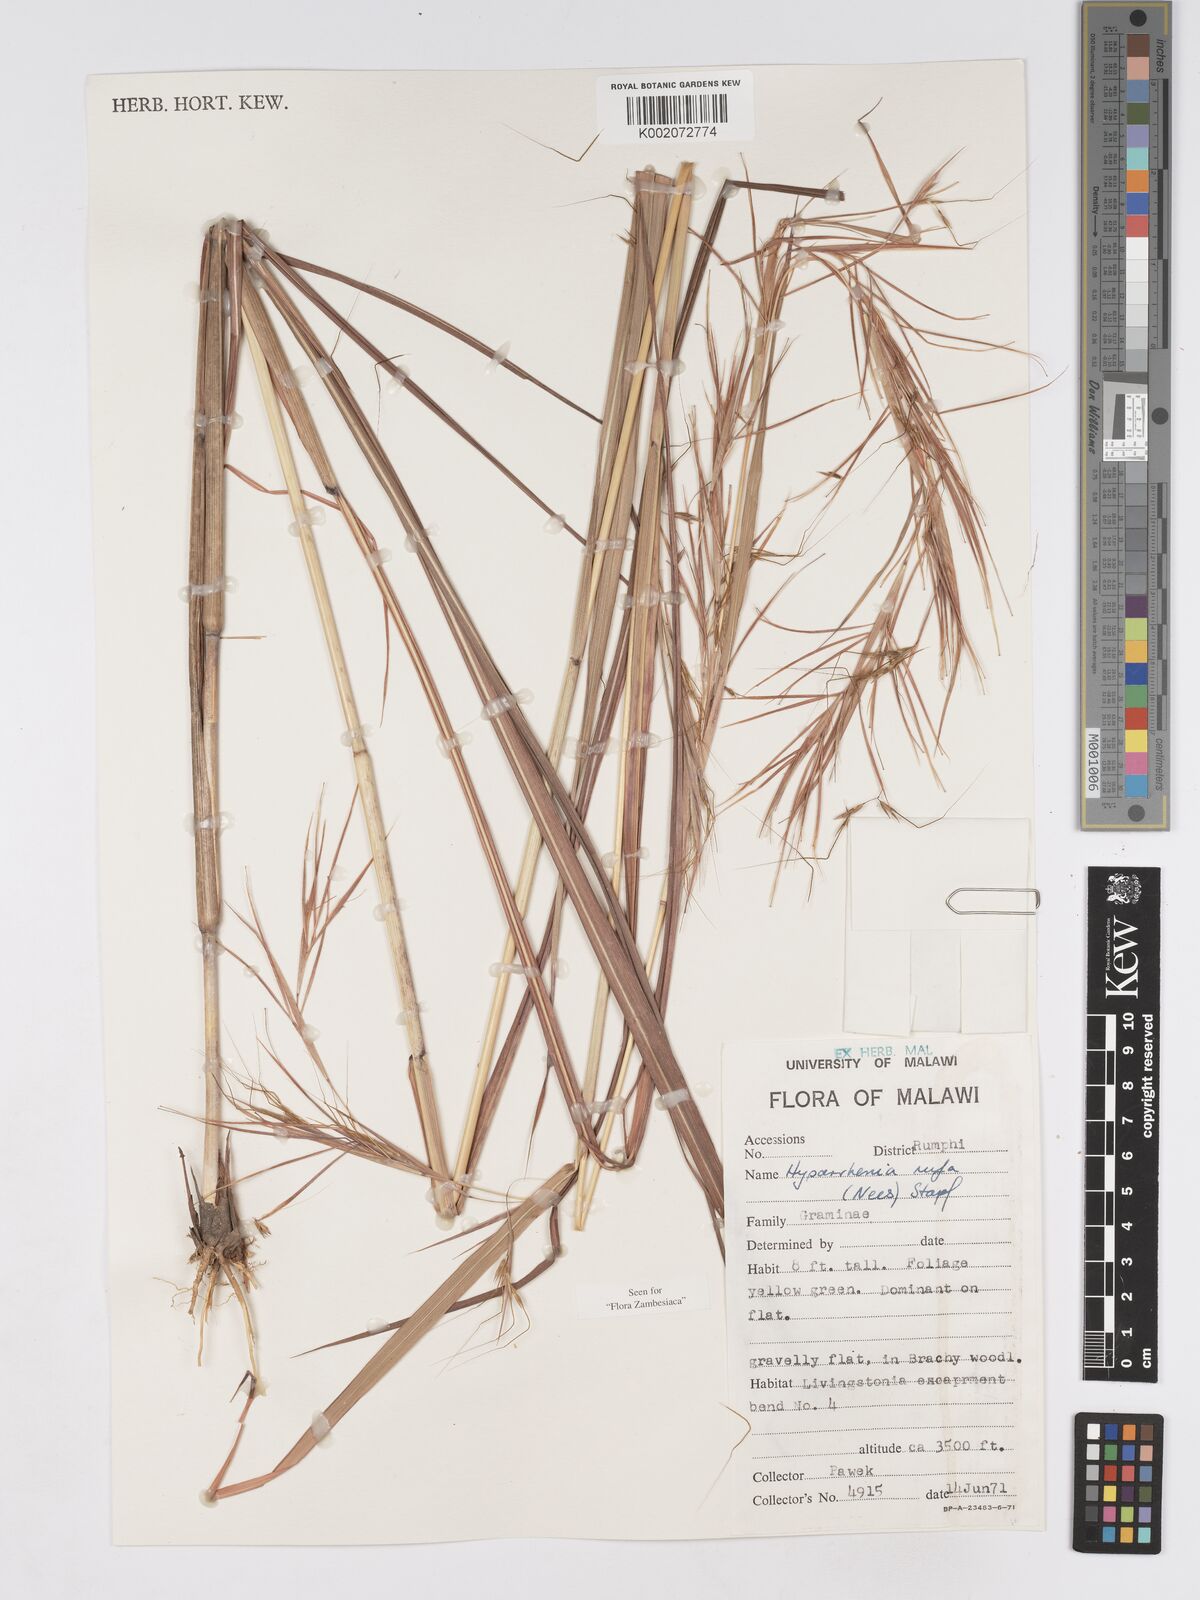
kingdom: Plantae
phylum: Tracheophyta
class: Liliopsida
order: Poales
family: Poaceae
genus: Hyparrhenia
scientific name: Hyparrhenia rufa
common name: Jaraguagrass
